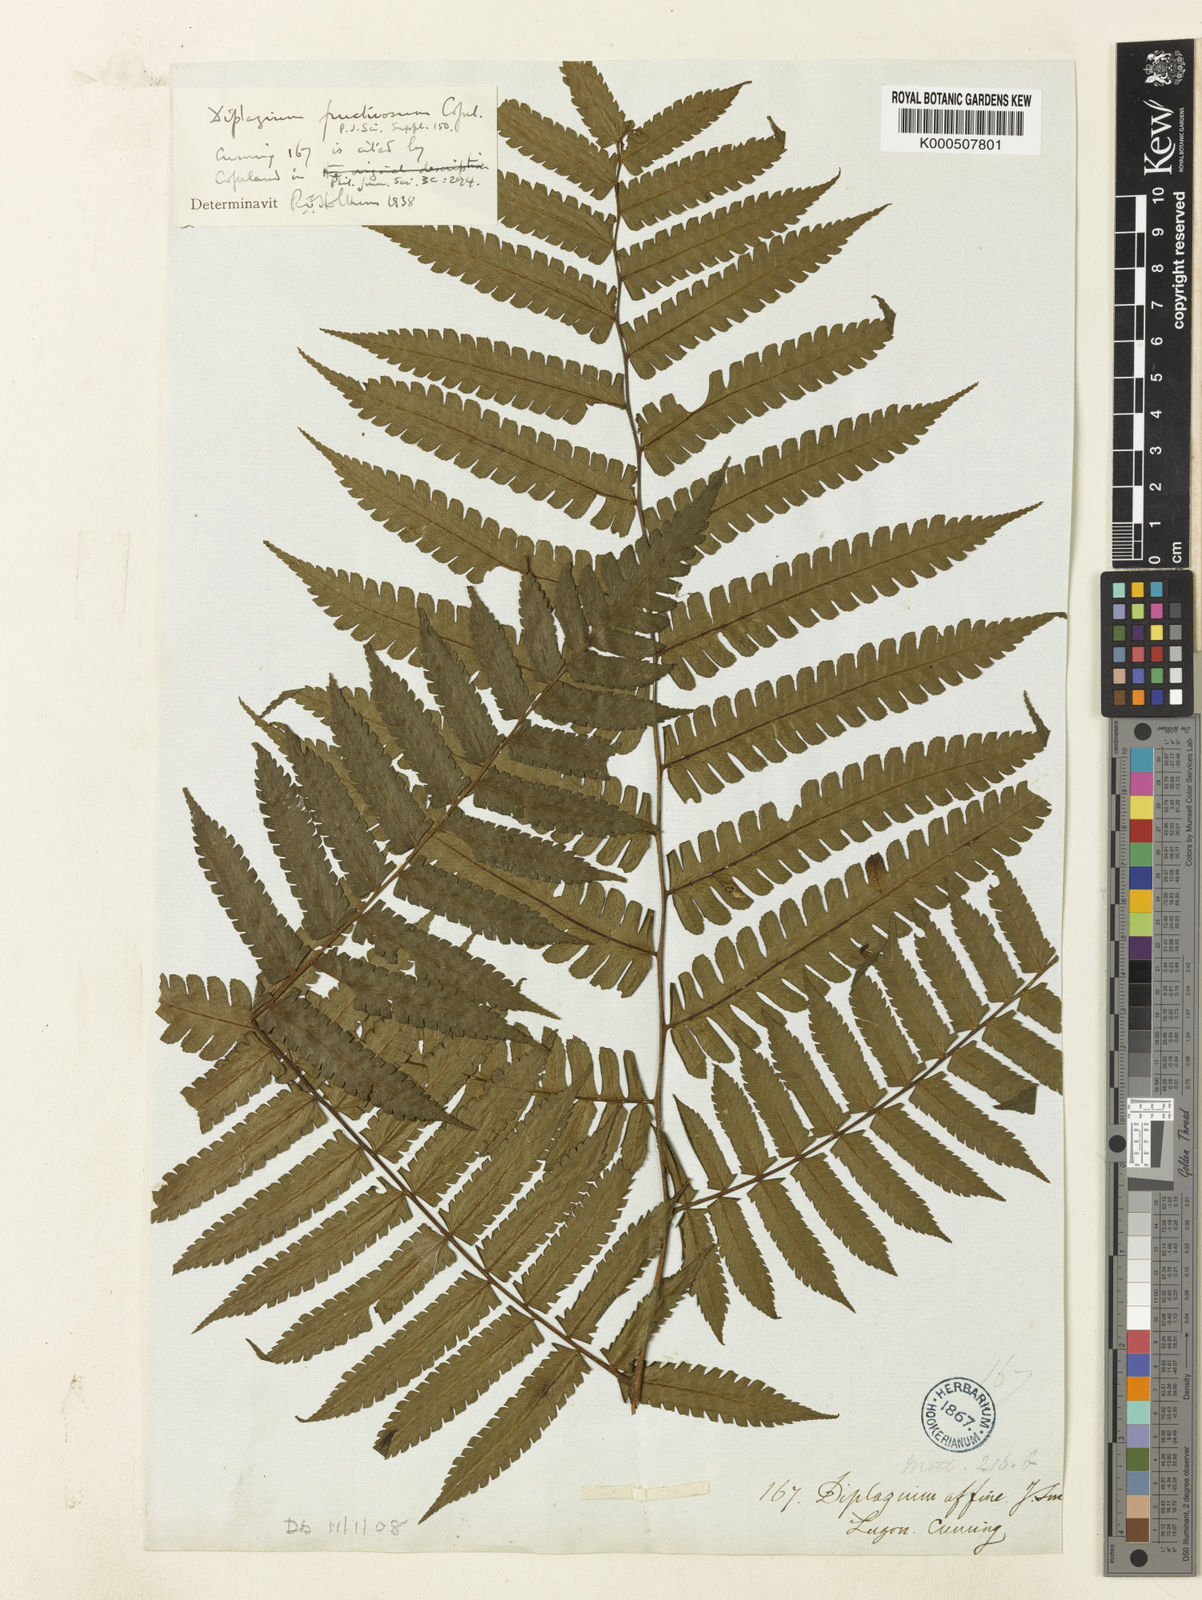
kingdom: Plantae
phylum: Tracheophyta
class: Polypodiopsida
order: Polypodiales
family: Athyriaceae
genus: Diplazium
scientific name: Diplazium fructuosum
